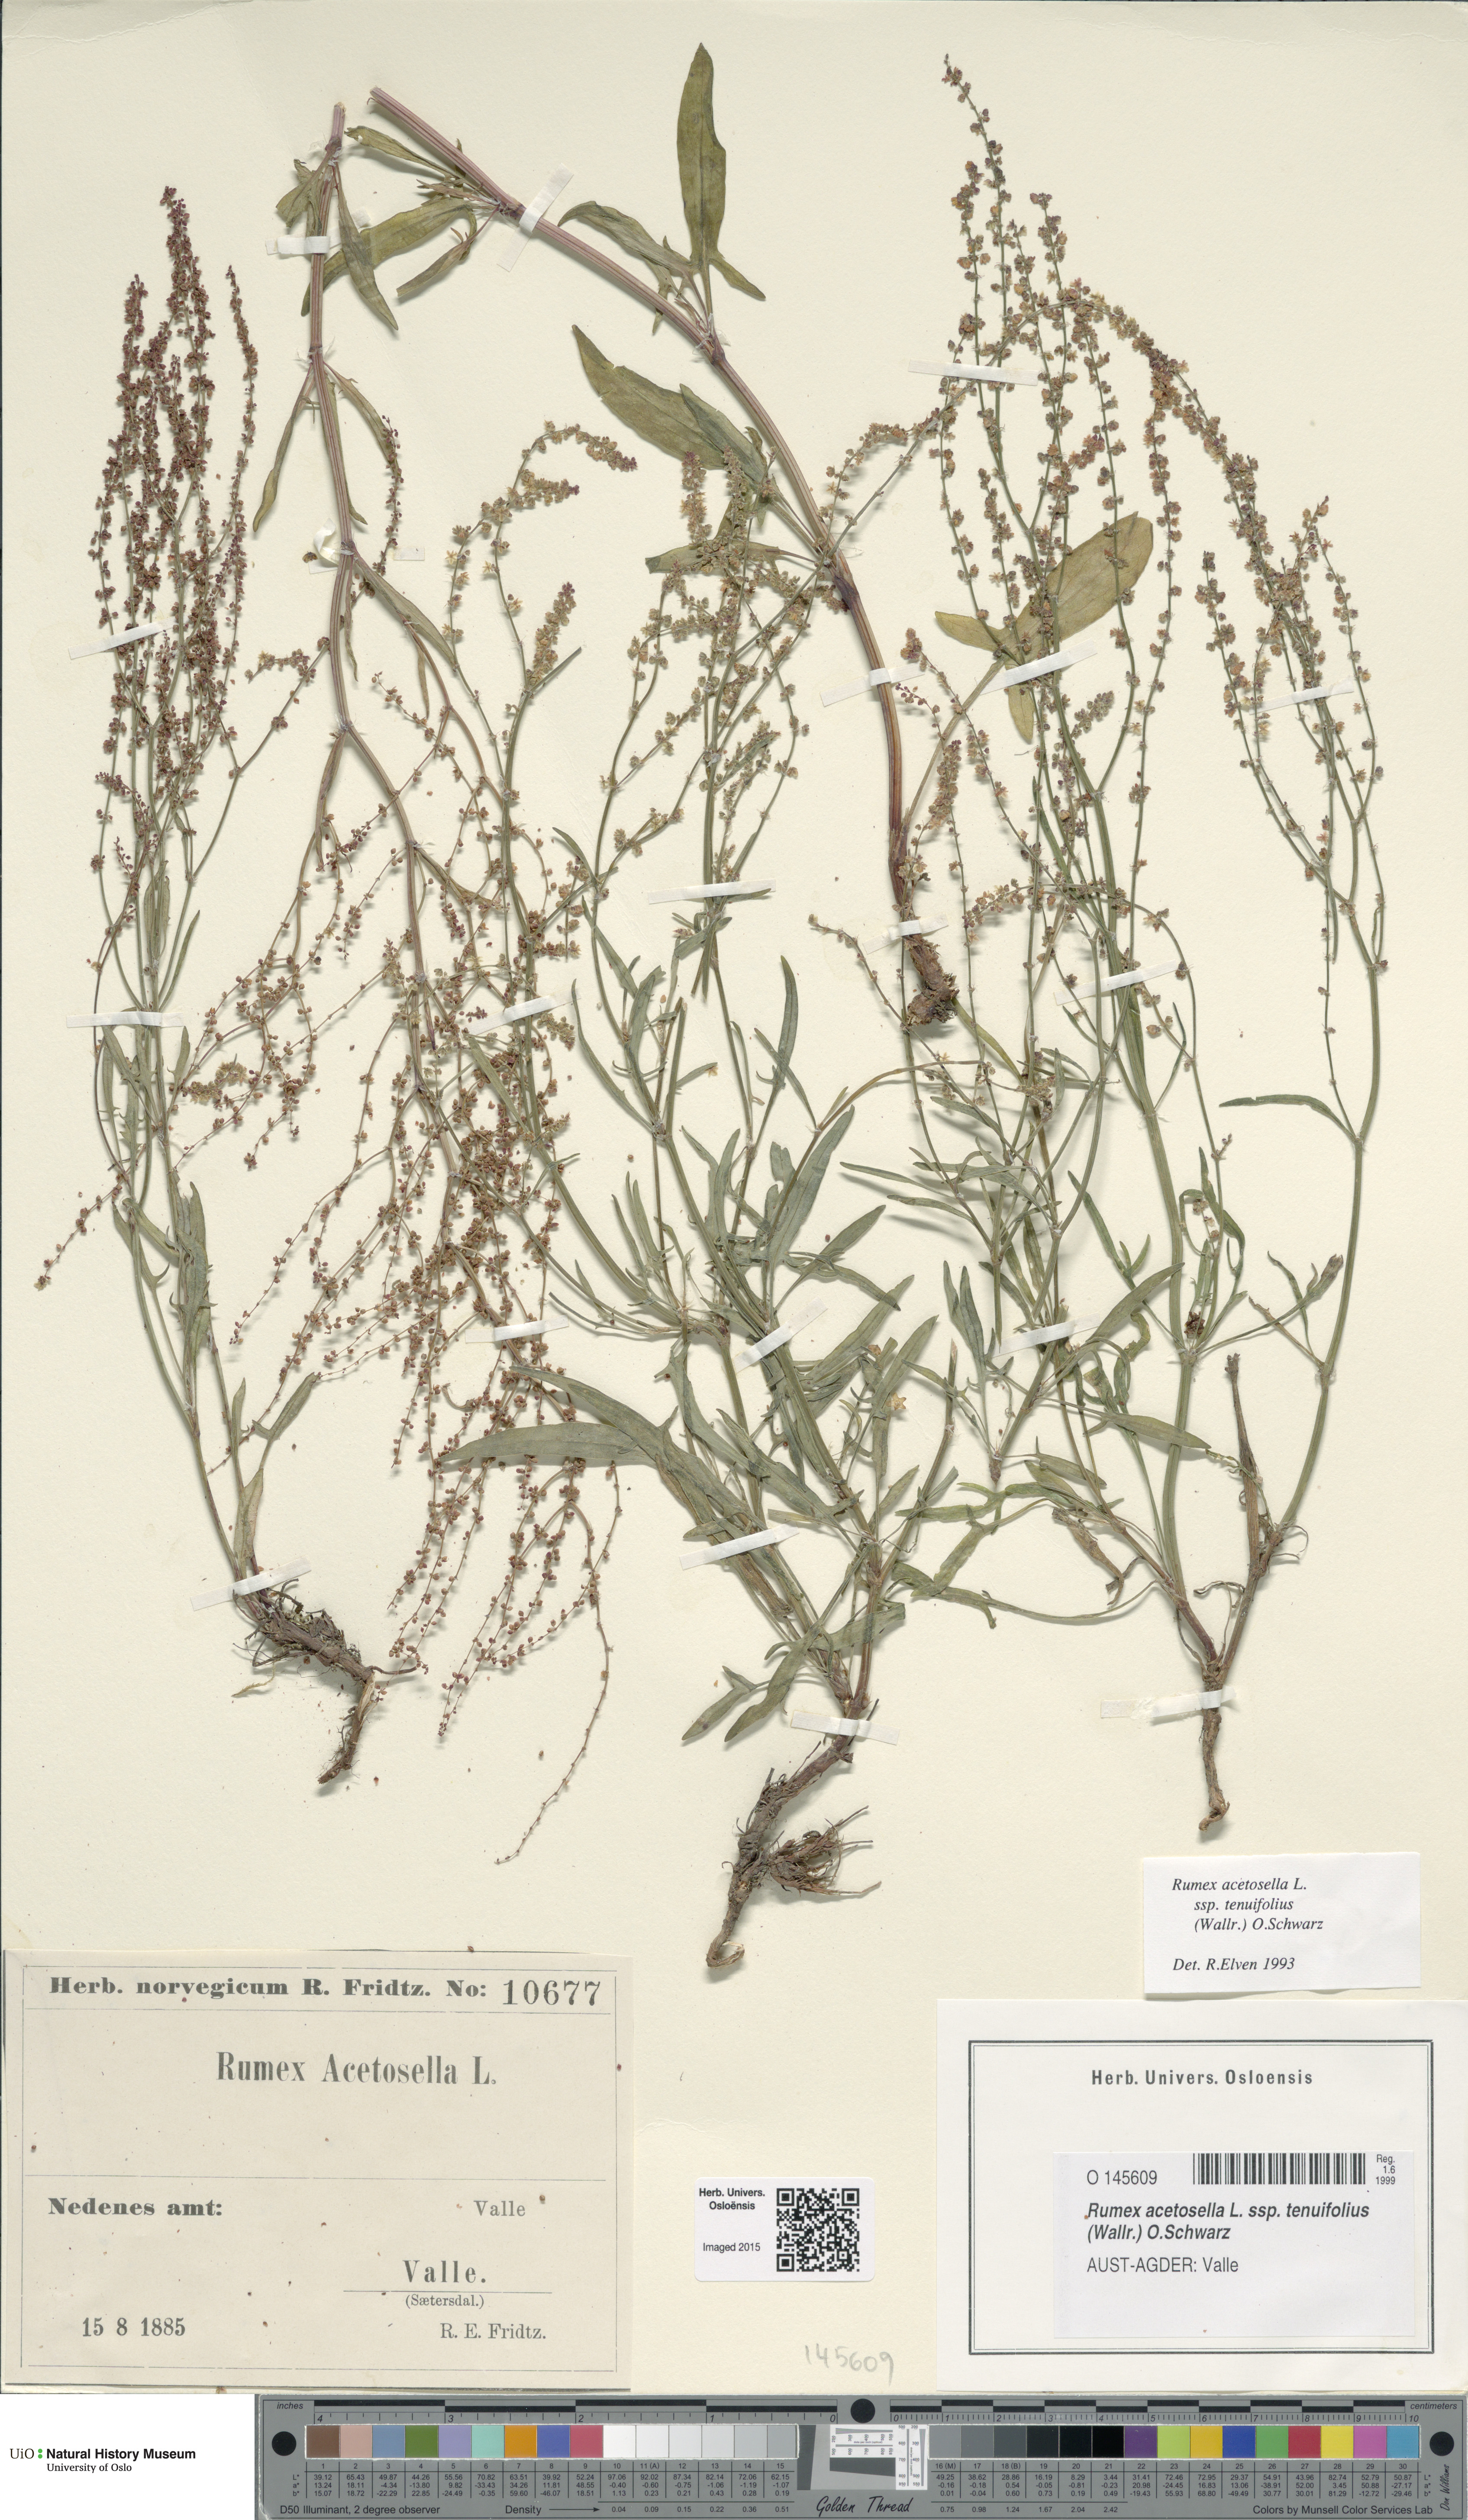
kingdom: Plantae
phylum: Tracheophyta
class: Magnoliopsida
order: Caryophyllales
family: Polygonaceae
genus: Rumex
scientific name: Rumex acetosella
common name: Common sheep sorrel
